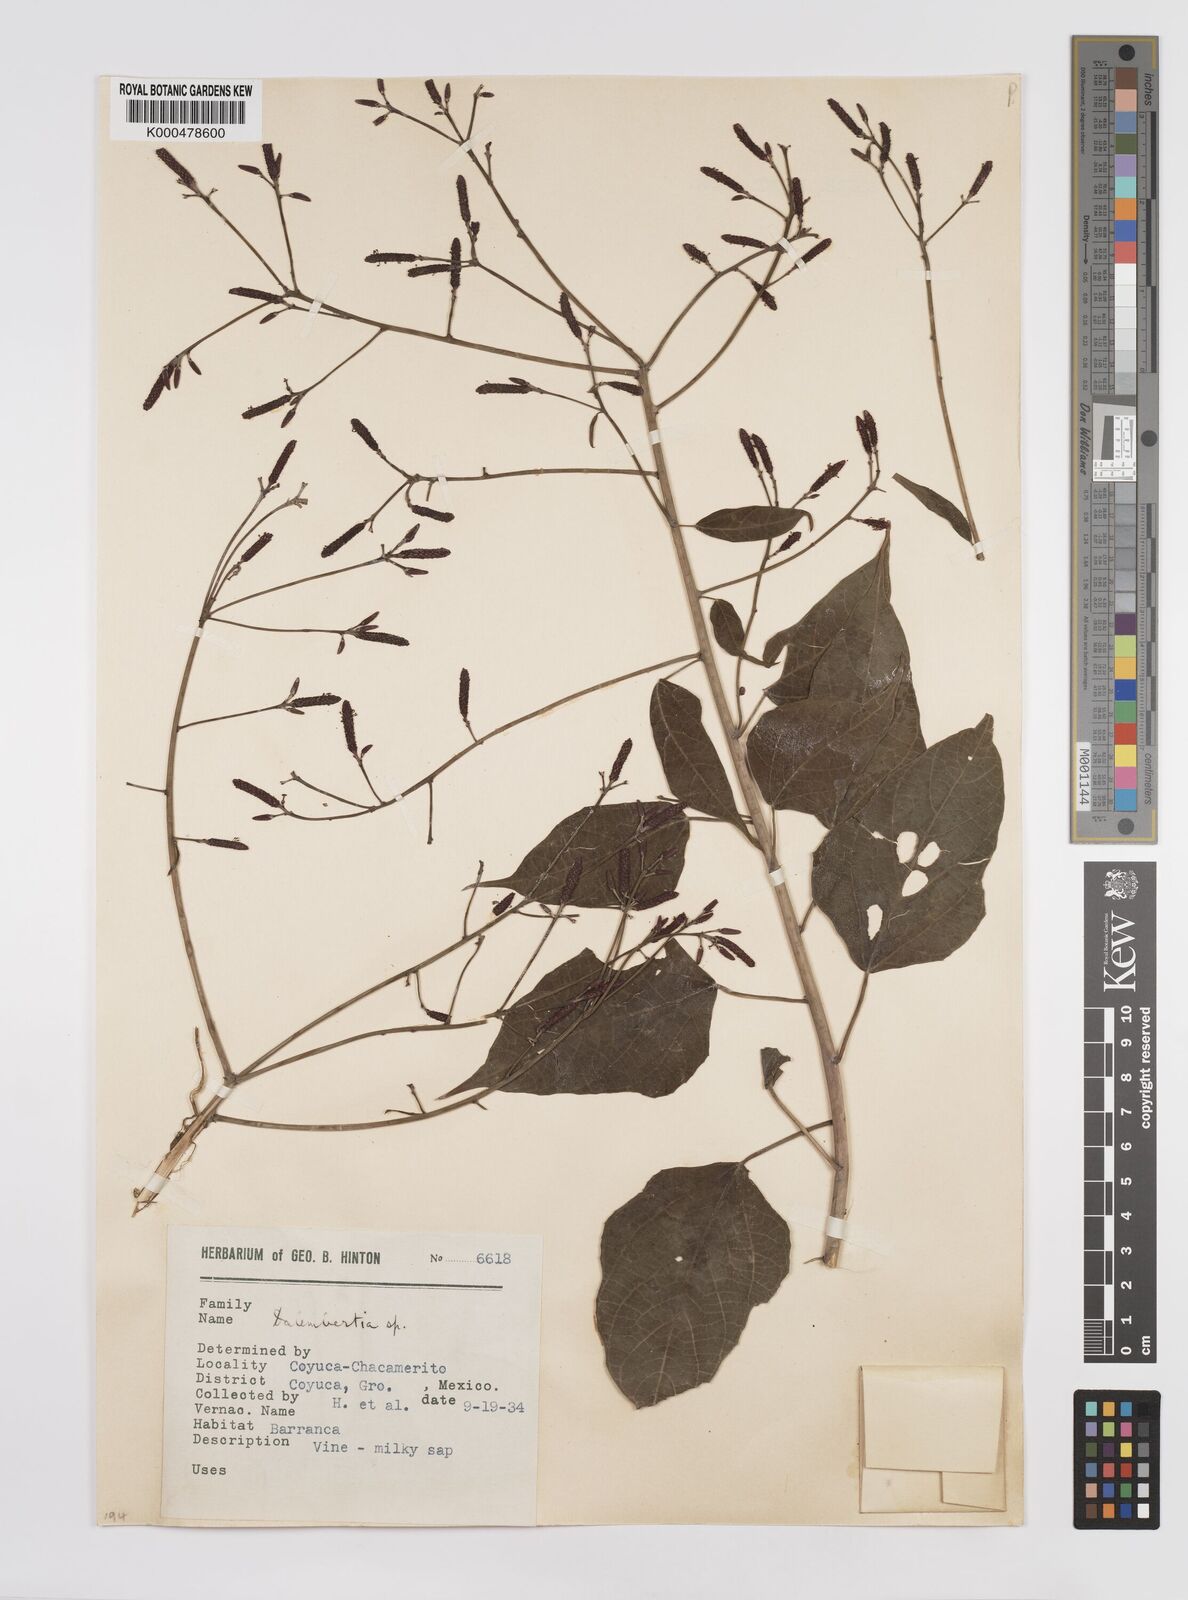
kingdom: Plantae
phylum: Tracheophyta
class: Magnoliopsida
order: Malpighiales
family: Euphorbiaceae
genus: Dalembertia
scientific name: Dalembertia
